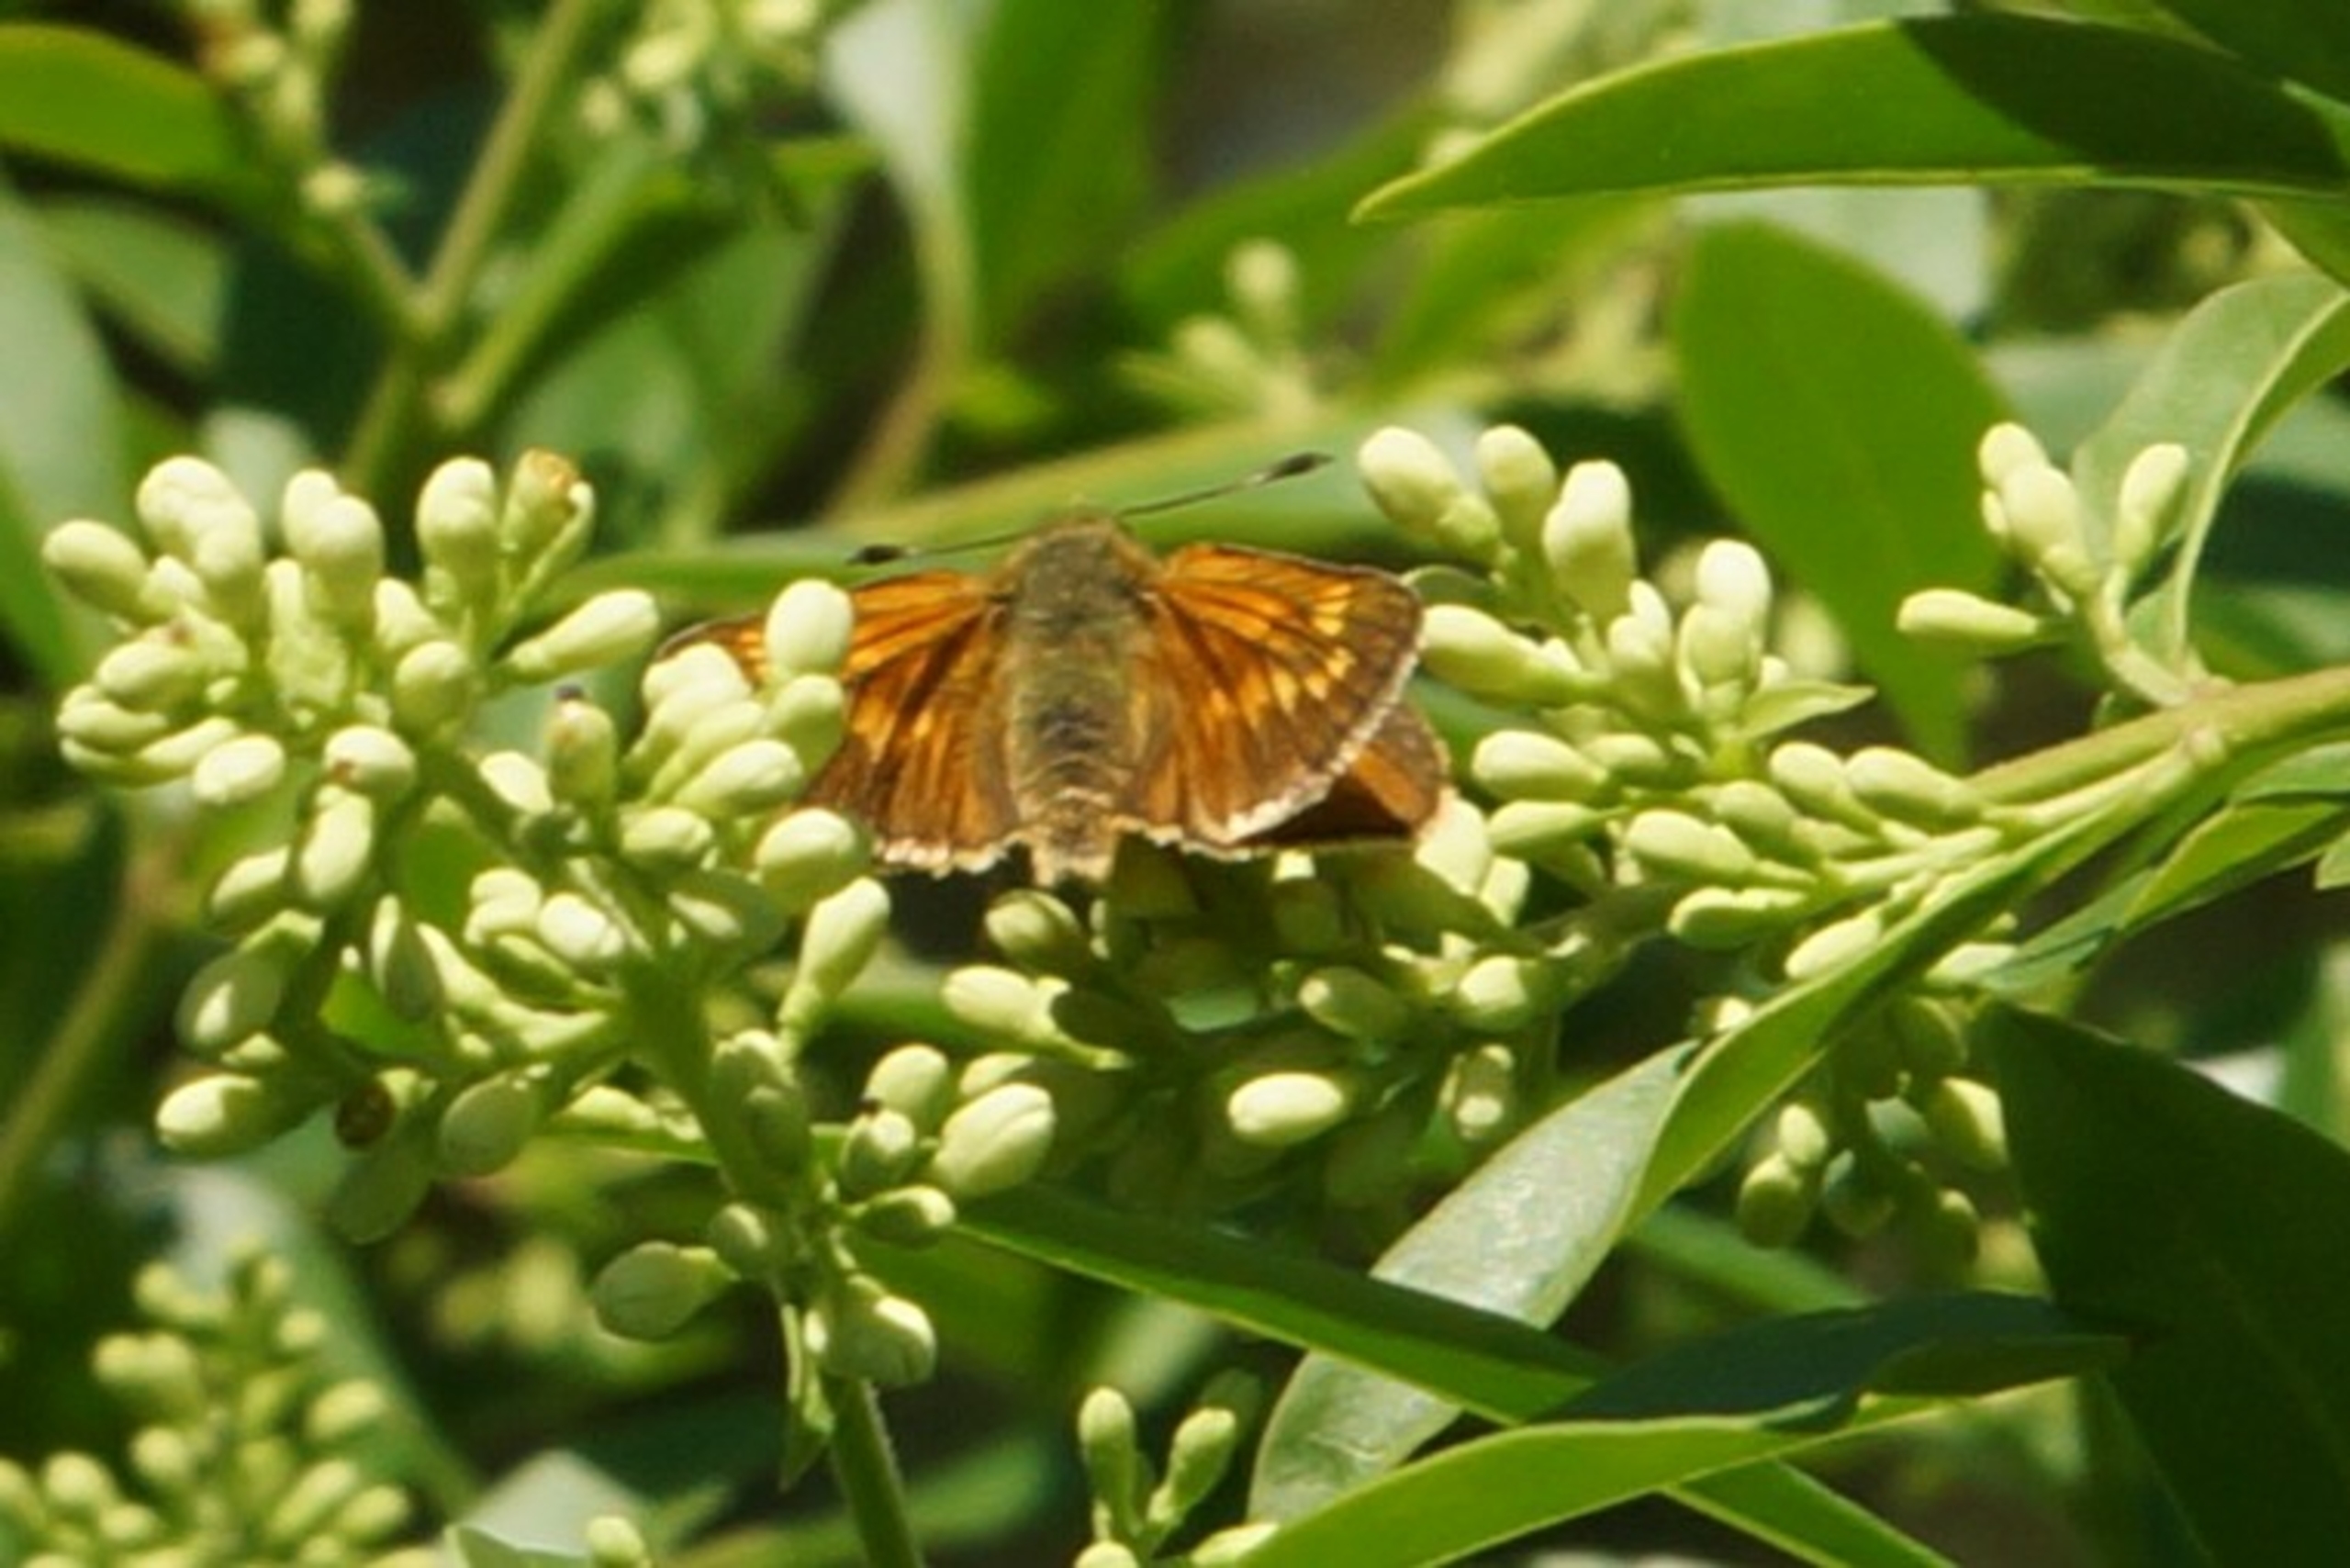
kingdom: Animalia
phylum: Arthropoda
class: Insecta
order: Lepidoptera
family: Hesperiidae
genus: Ochlodes
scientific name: Ochlodes venata
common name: Stor bredpande
